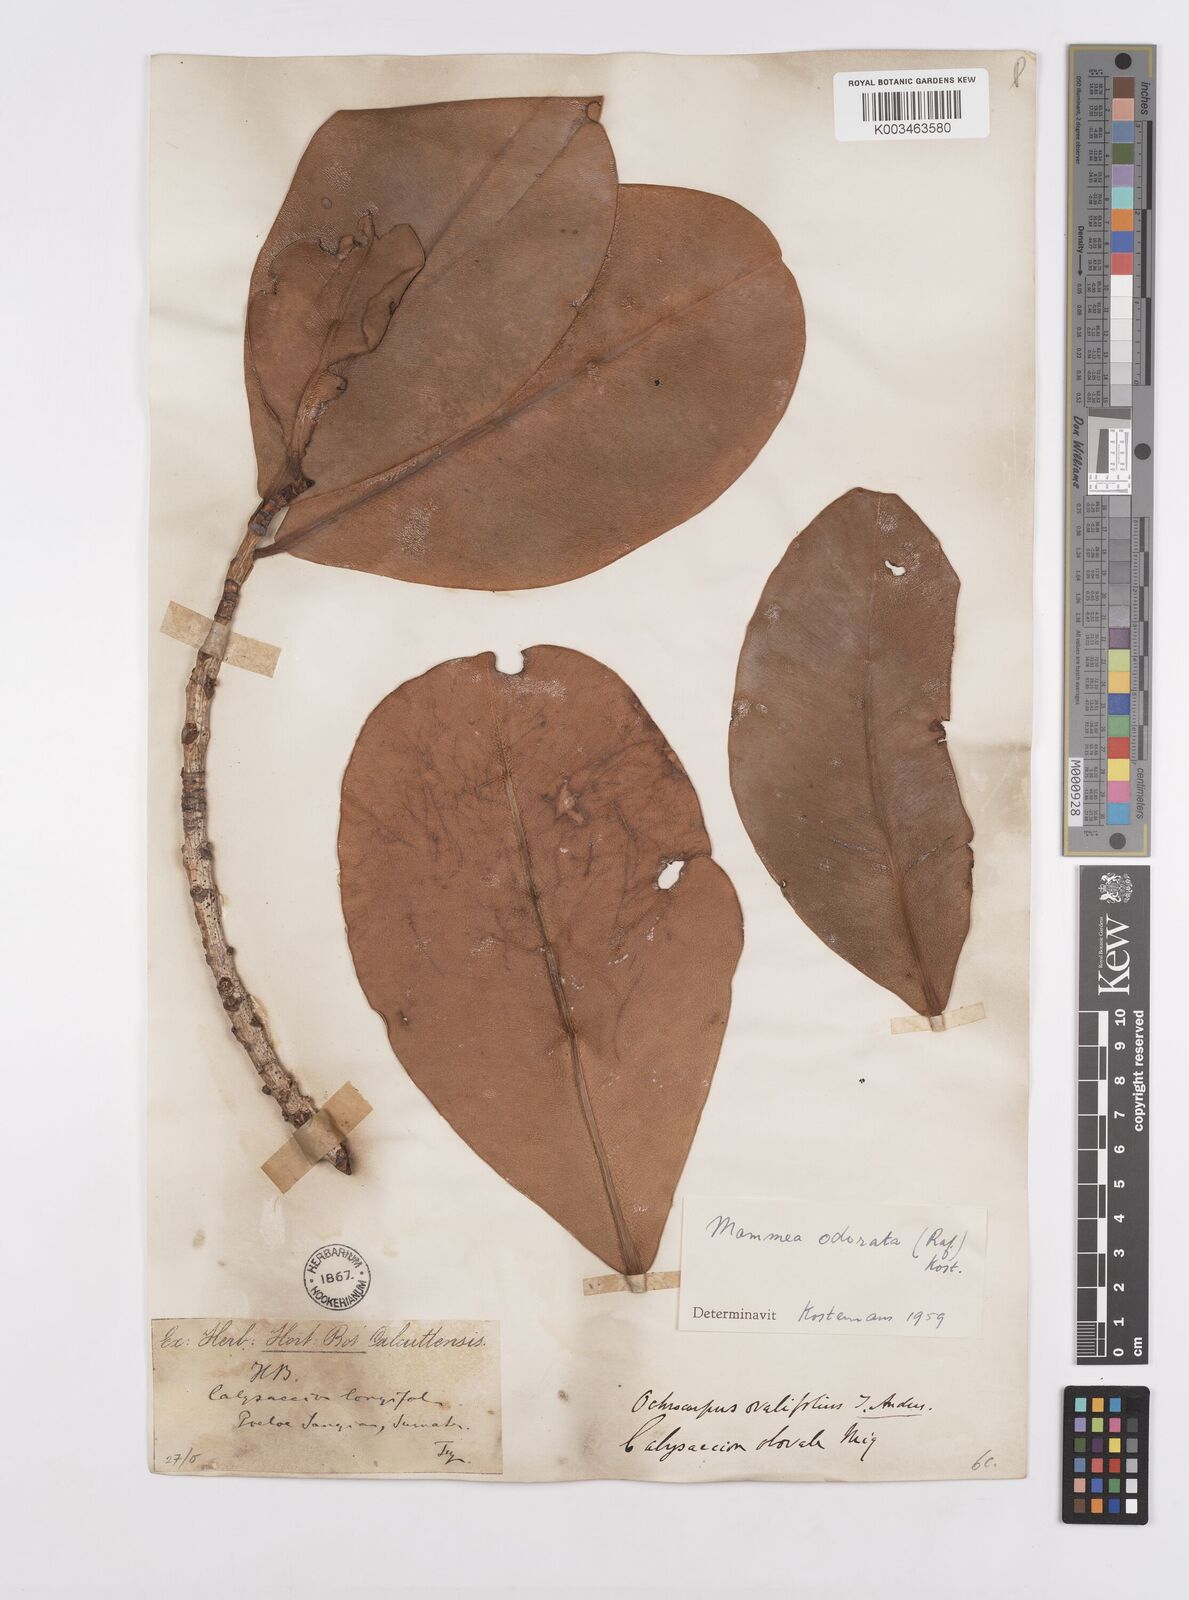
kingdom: Plantae
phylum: Tracheophyta
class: Magnoliopsida
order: Malpighiales
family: Calophyllaceae
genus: Mammea
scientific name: Mammea odorata
